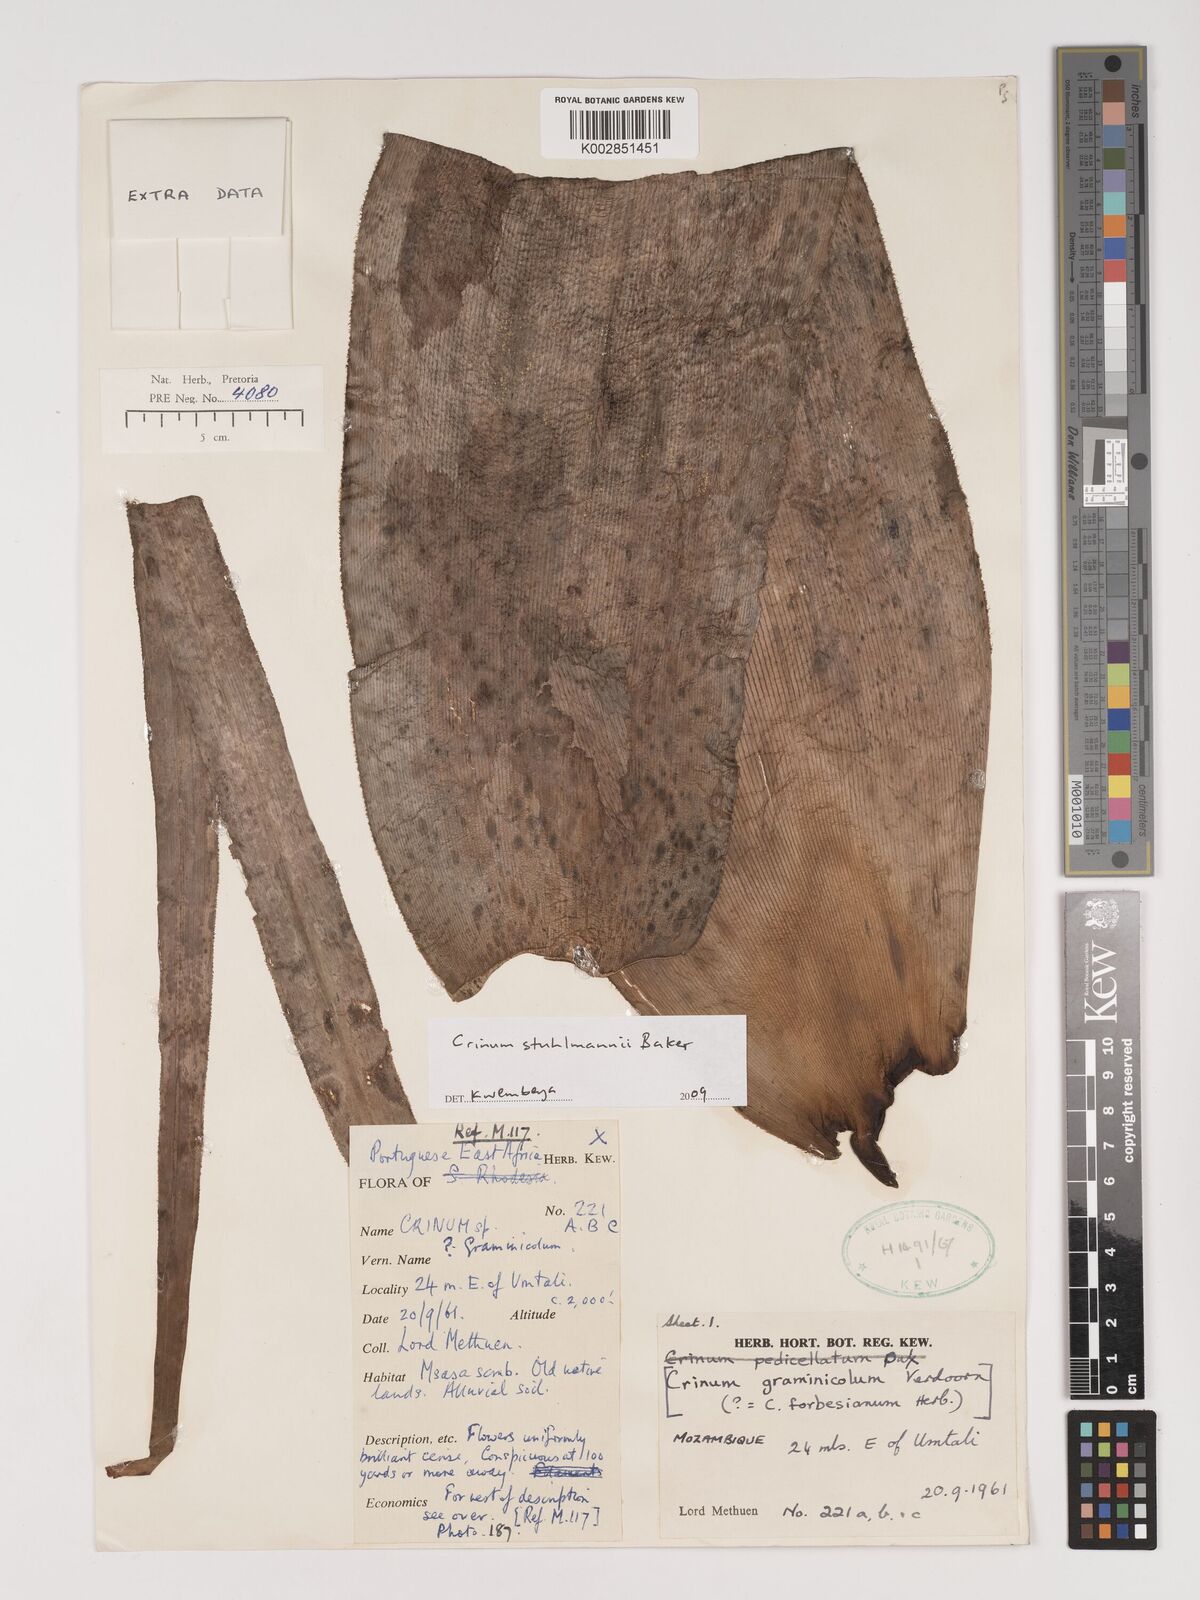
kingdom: Plantae
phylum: Tracheophyta
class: Liliopsida
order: Asparagales
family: Amaryllidaceae
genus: Crinum
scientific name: Crinum stuhlmannii
